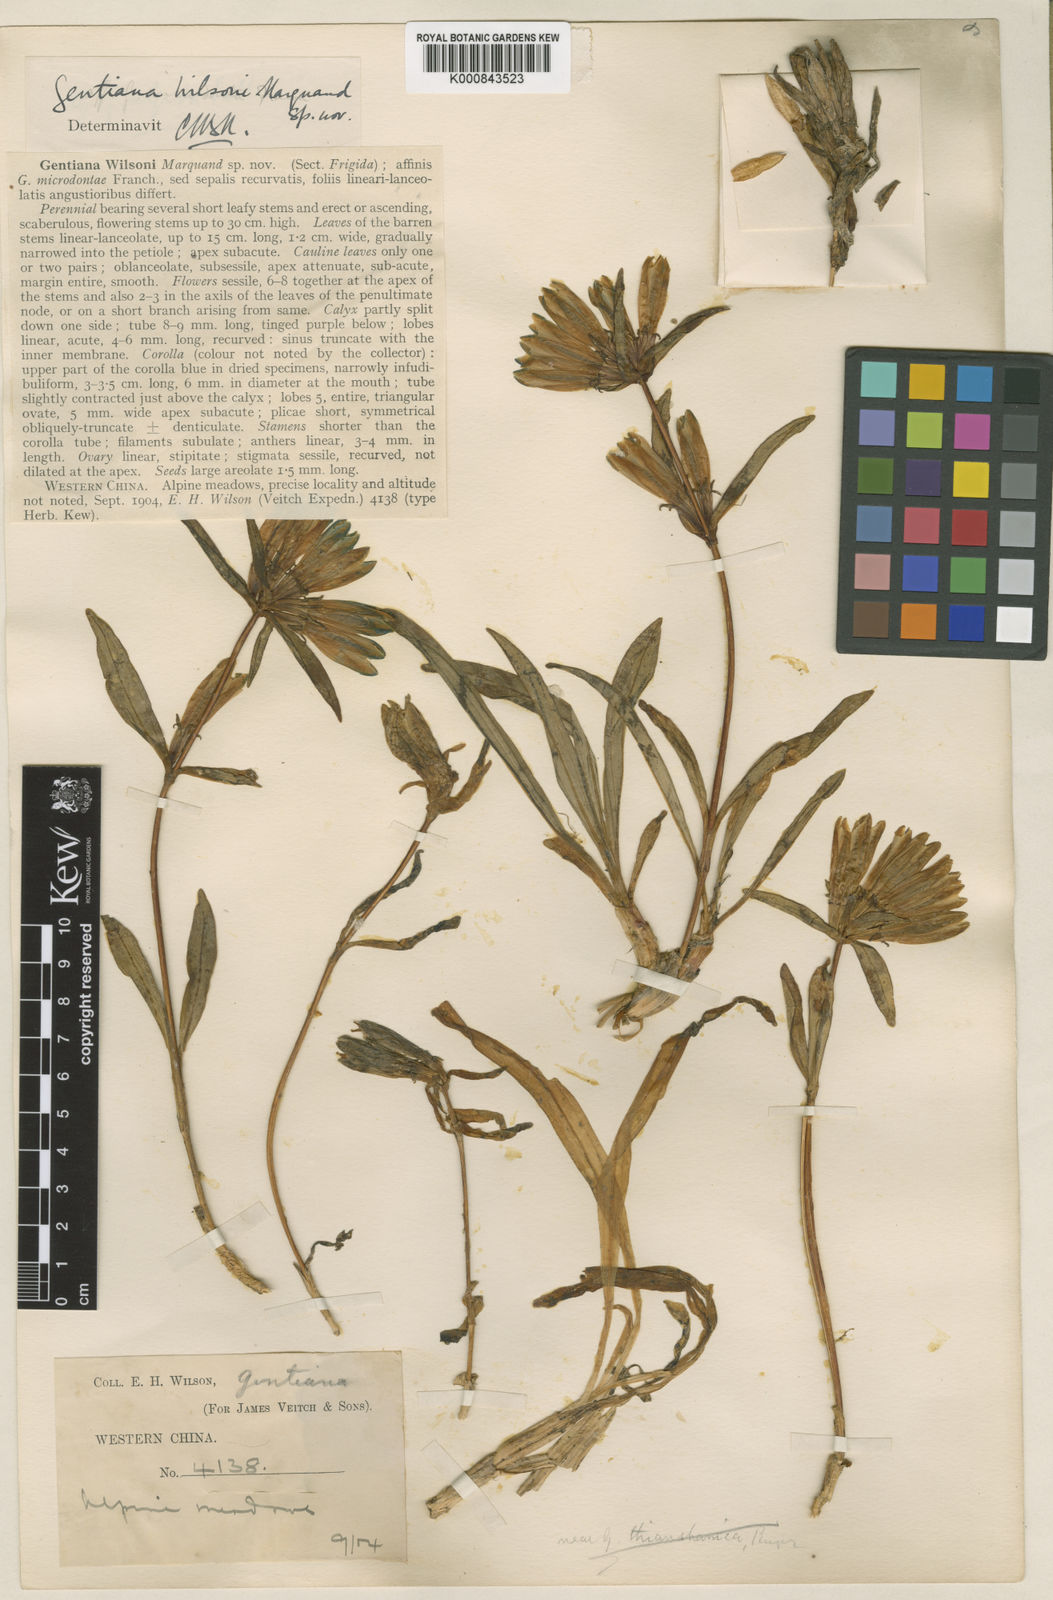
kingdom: Plantae
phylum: Tracheophyta
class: Magnoliopsida
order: Gentianales
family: Gentianaceae
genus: Gentiana
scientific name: Gentiana
